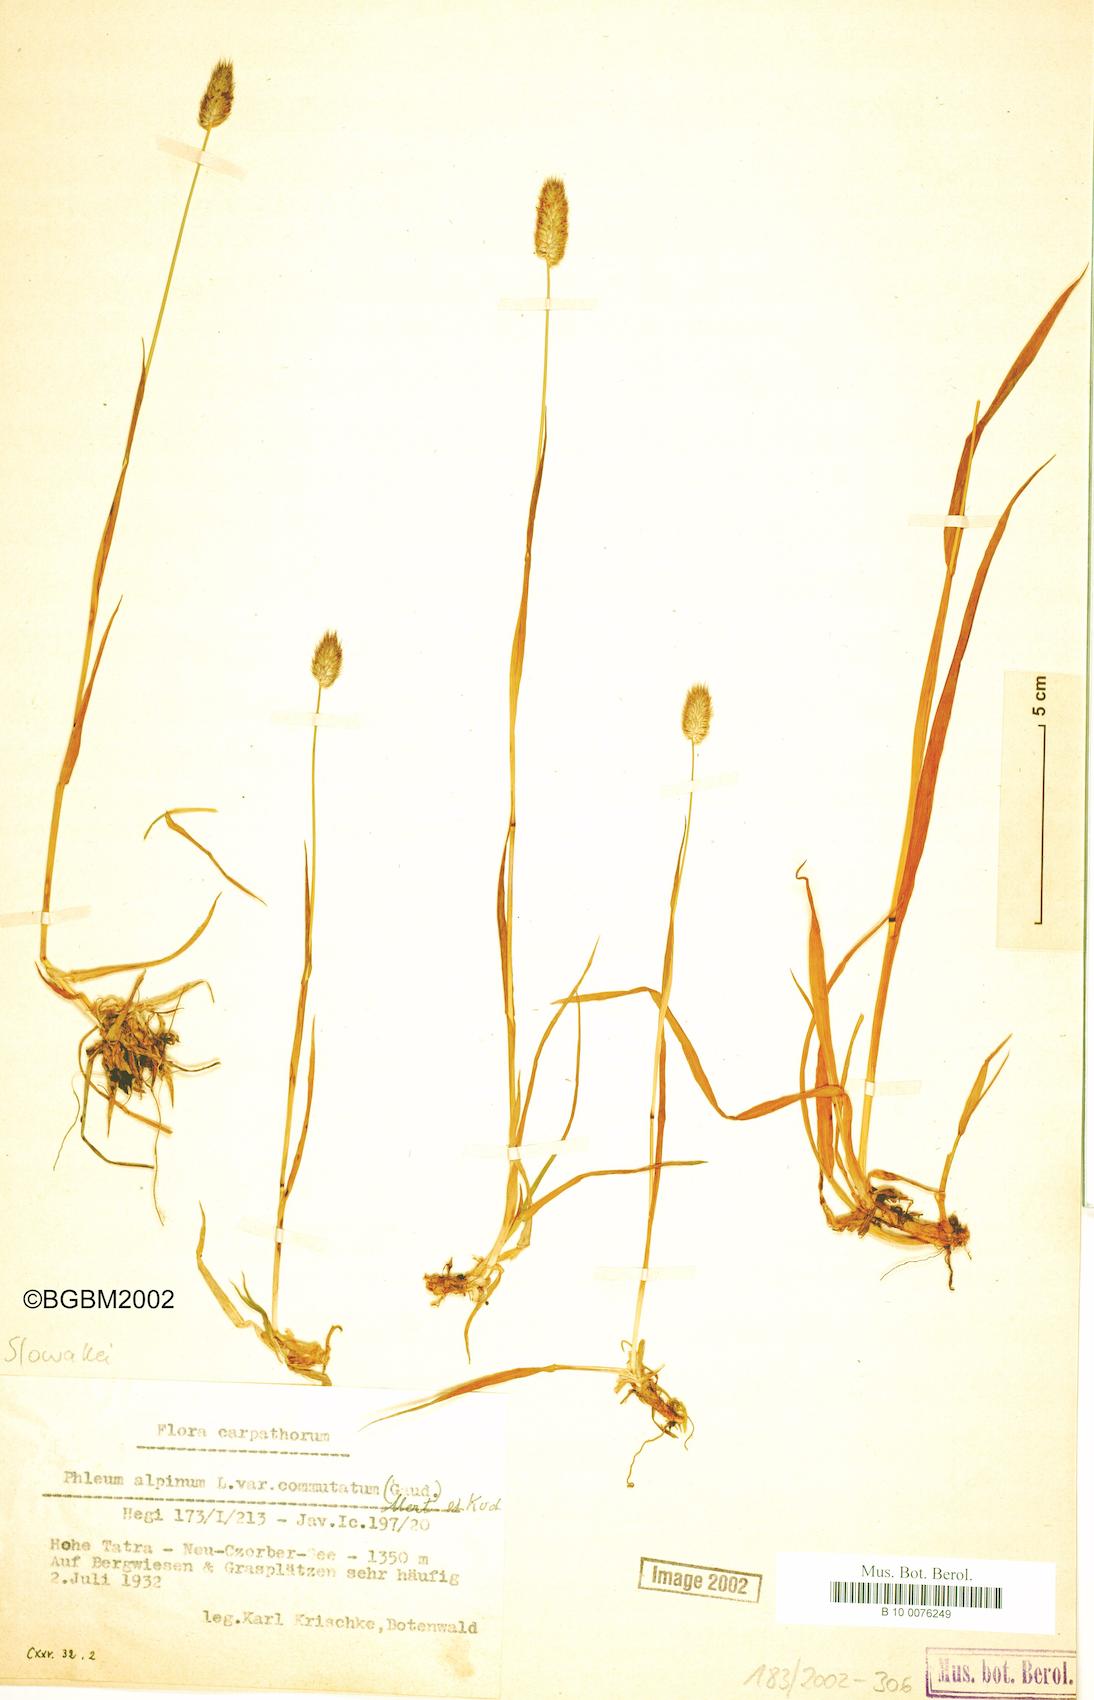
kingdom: Plantae
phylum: Tracheophyta
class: Liliopsida
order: Poales
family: Poaceae
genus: Phleum
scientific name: Phleum alpinum
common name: Alpine cat's-tail
